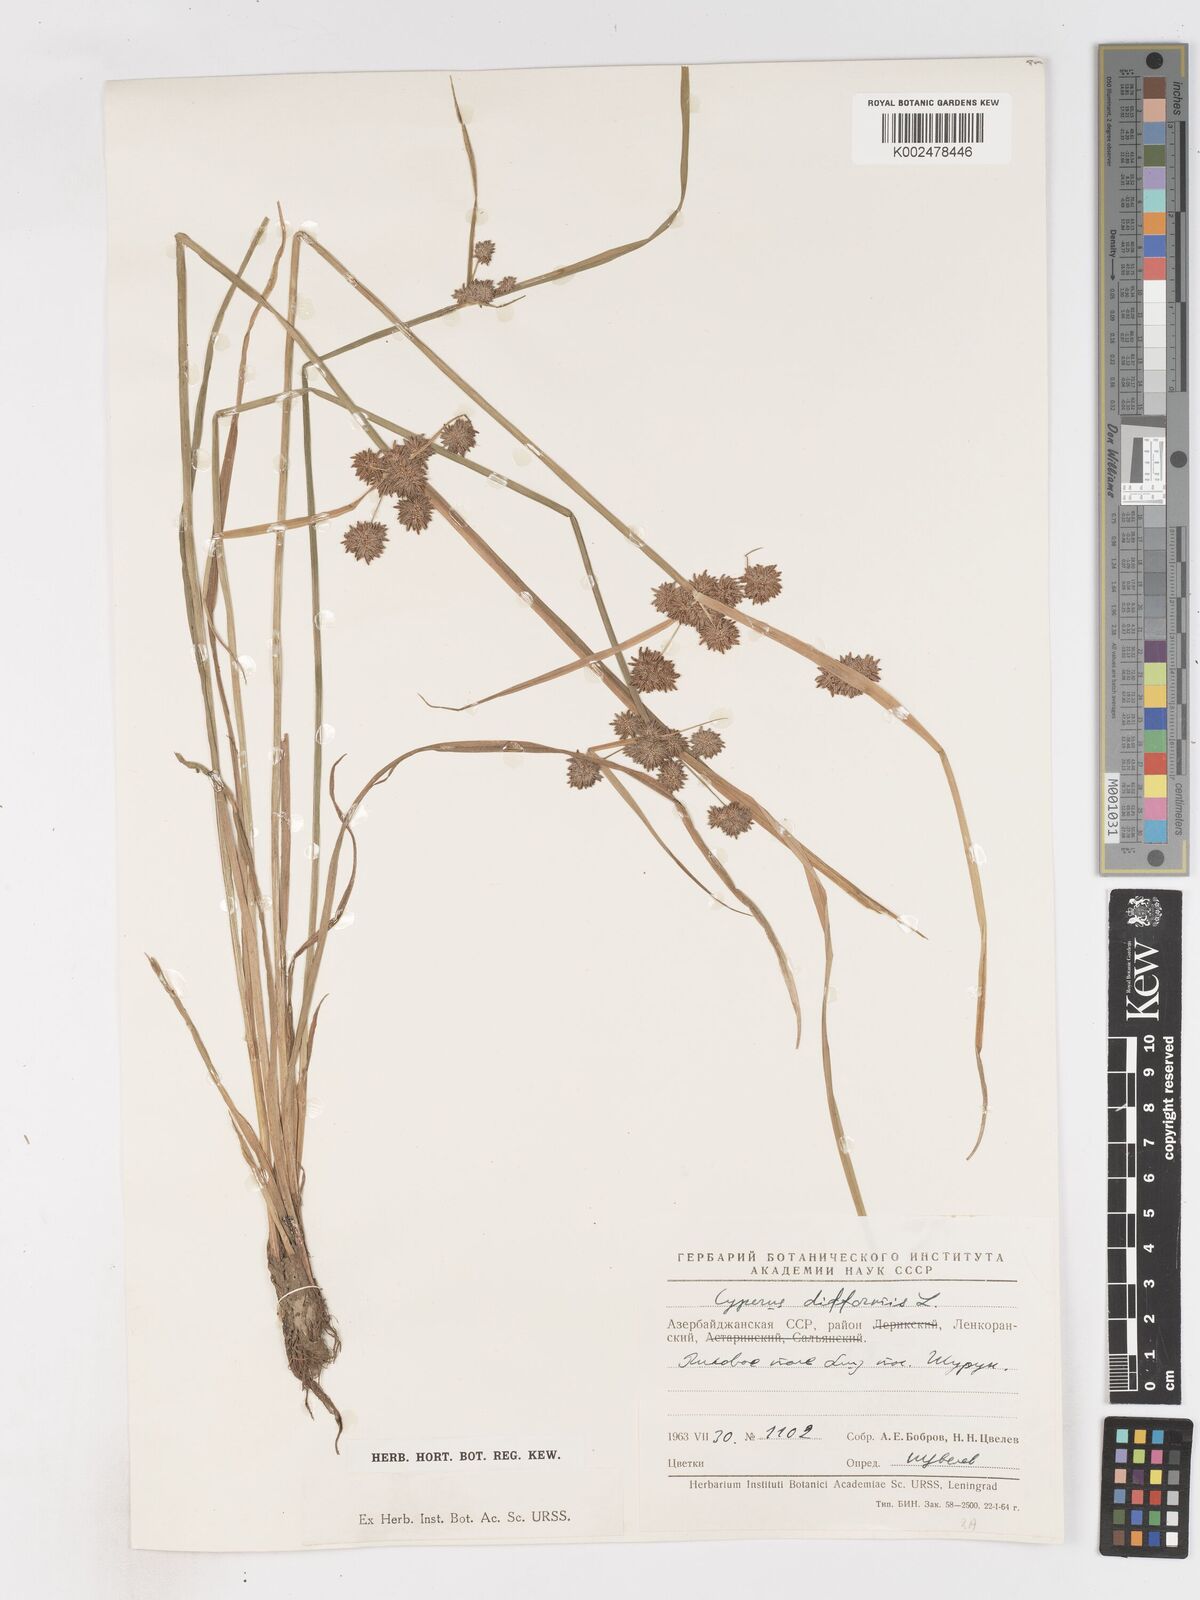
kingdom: Plantae
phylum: Tracheophyta
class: Liliopsida
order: Poales
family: Cyperaceae
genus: Cyperus
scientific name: Cyperus difformis
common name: Variable flatsedge
